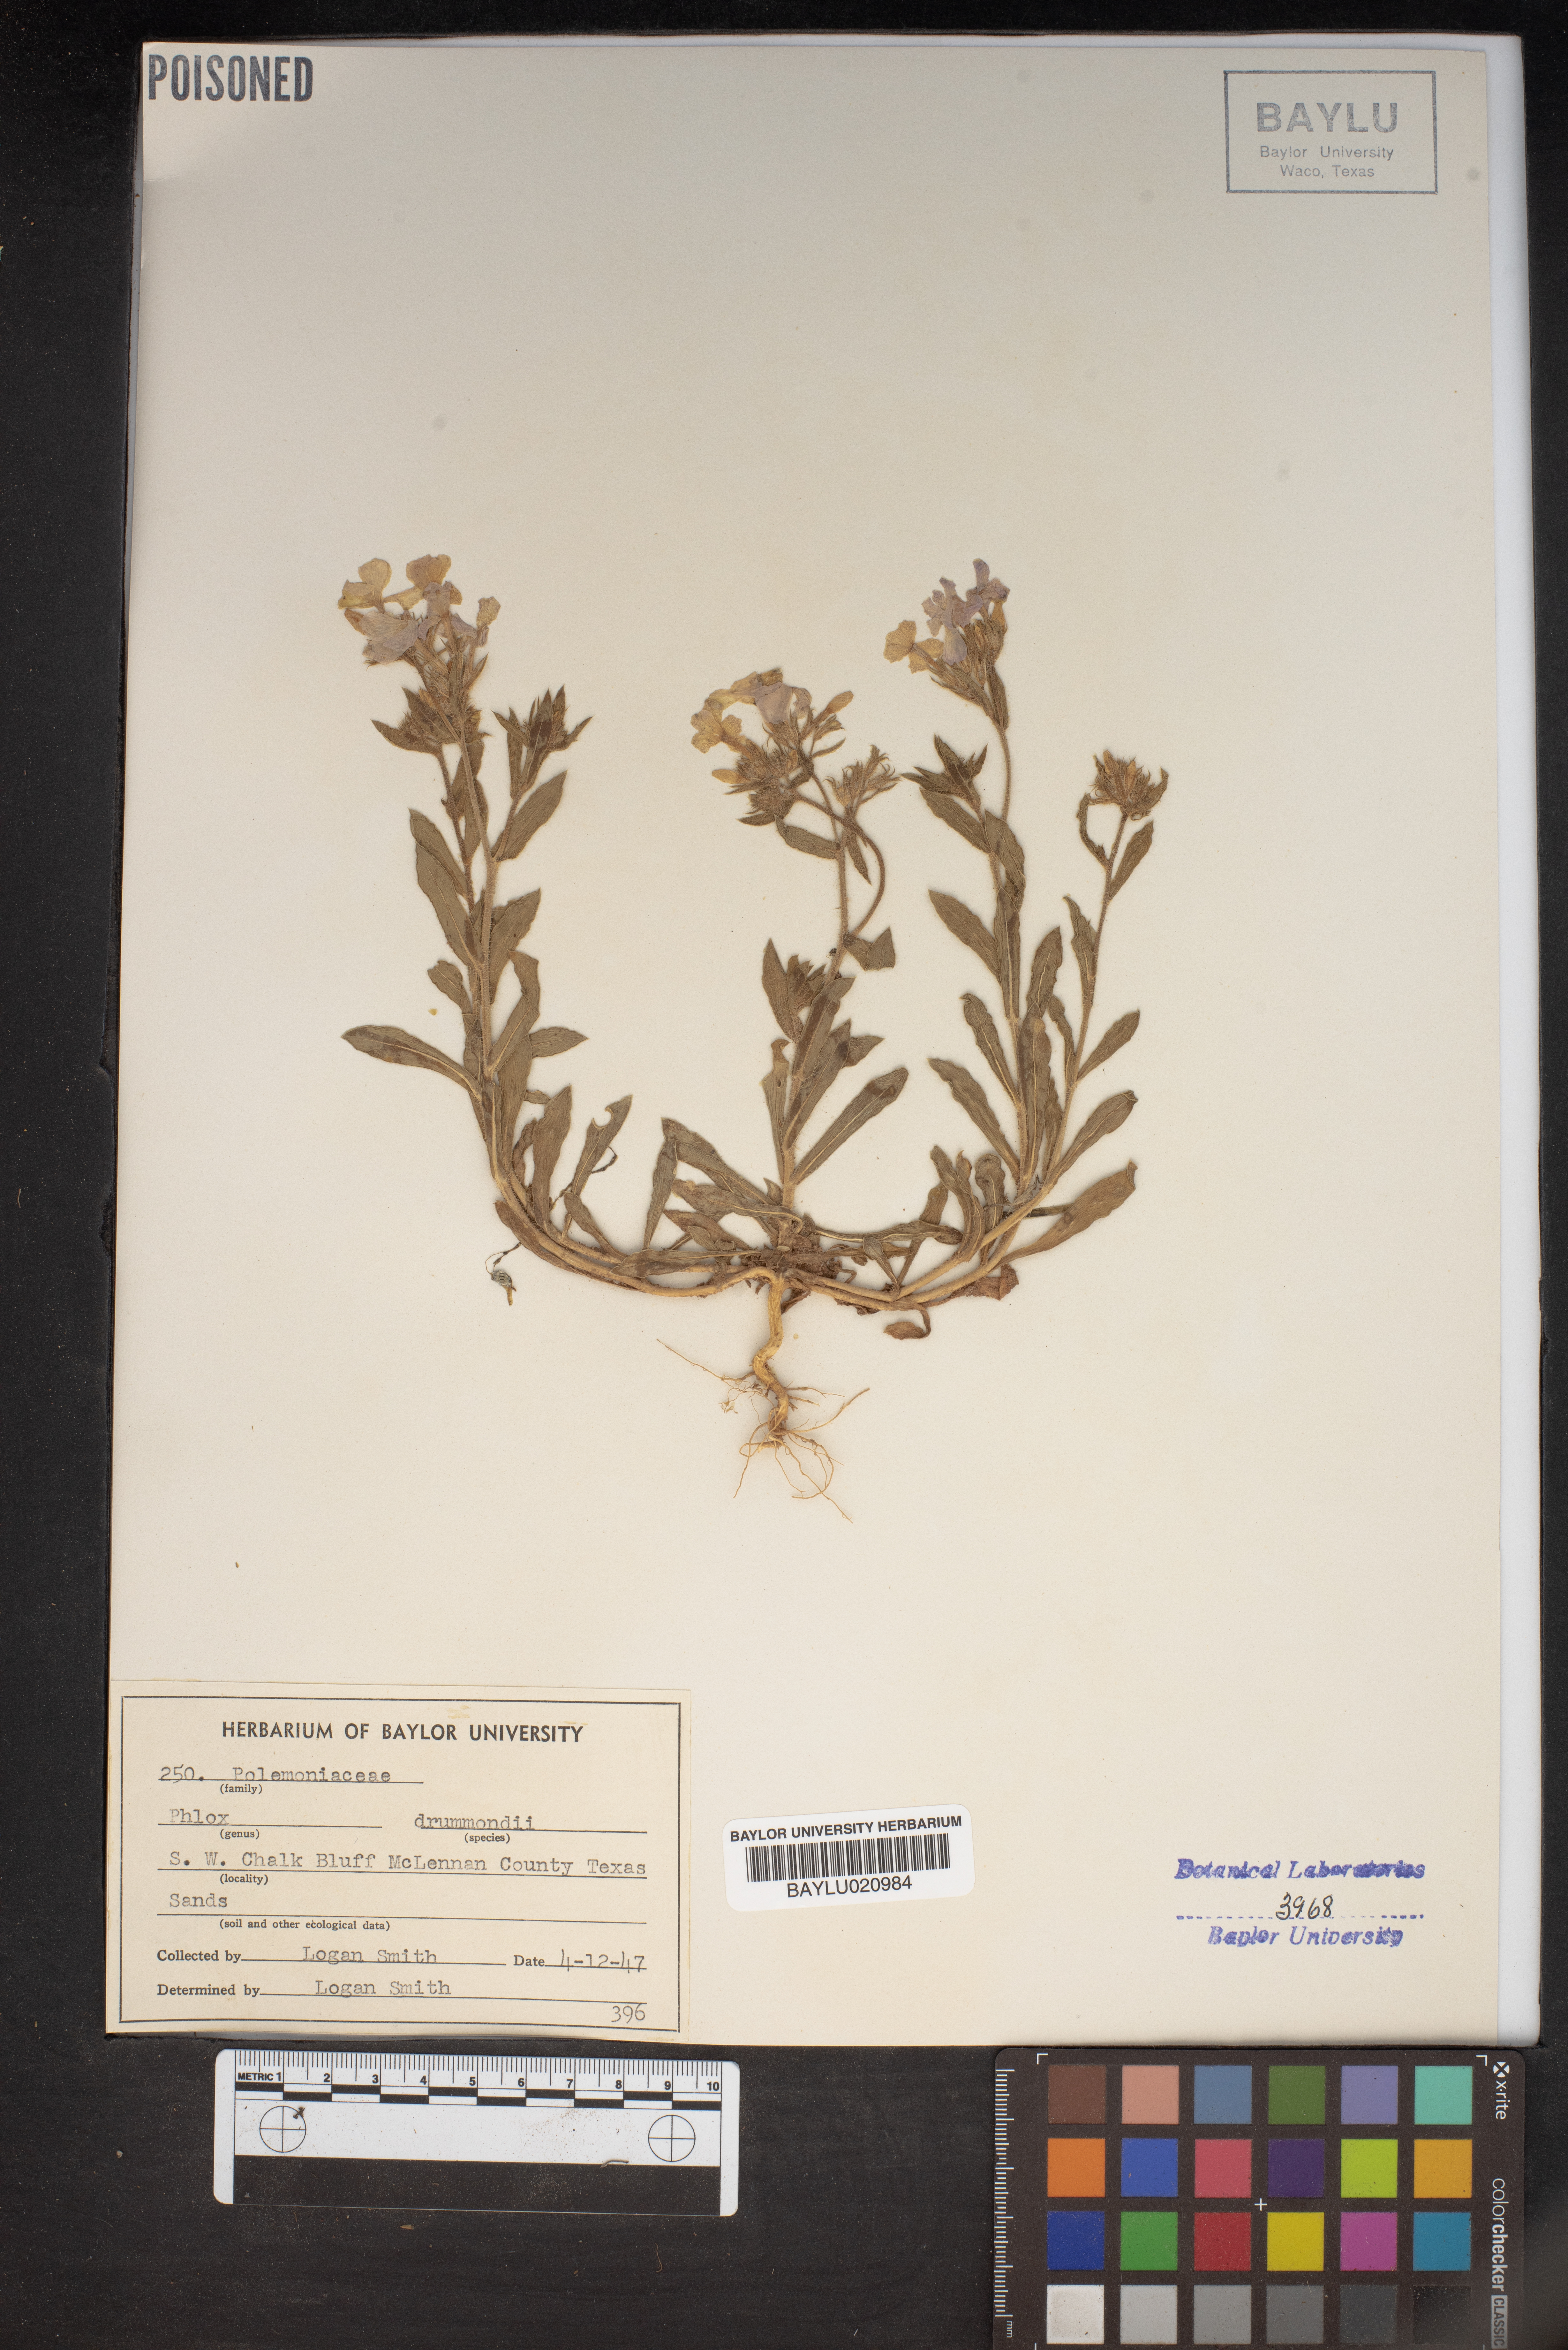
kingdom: Plantae
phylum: Tracheophyta
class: Magnoliopsida
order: Ericales
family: Polemoniaceae
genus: Phlox
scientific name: Phlox drummondii
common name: Drummond's phlox
